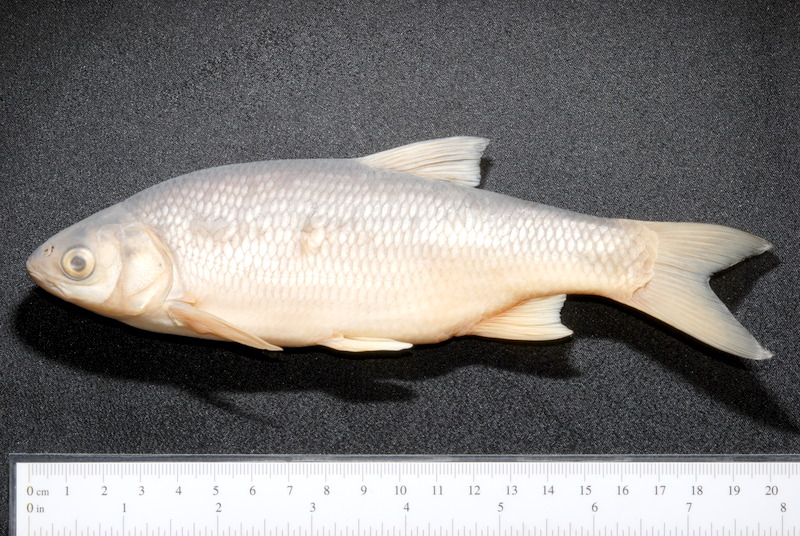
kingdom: Animalia
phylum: Chordata
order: Cypriniformes
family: Cyprinidae
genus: Leuciscus
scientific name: Leuciscus idus
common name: Ide
